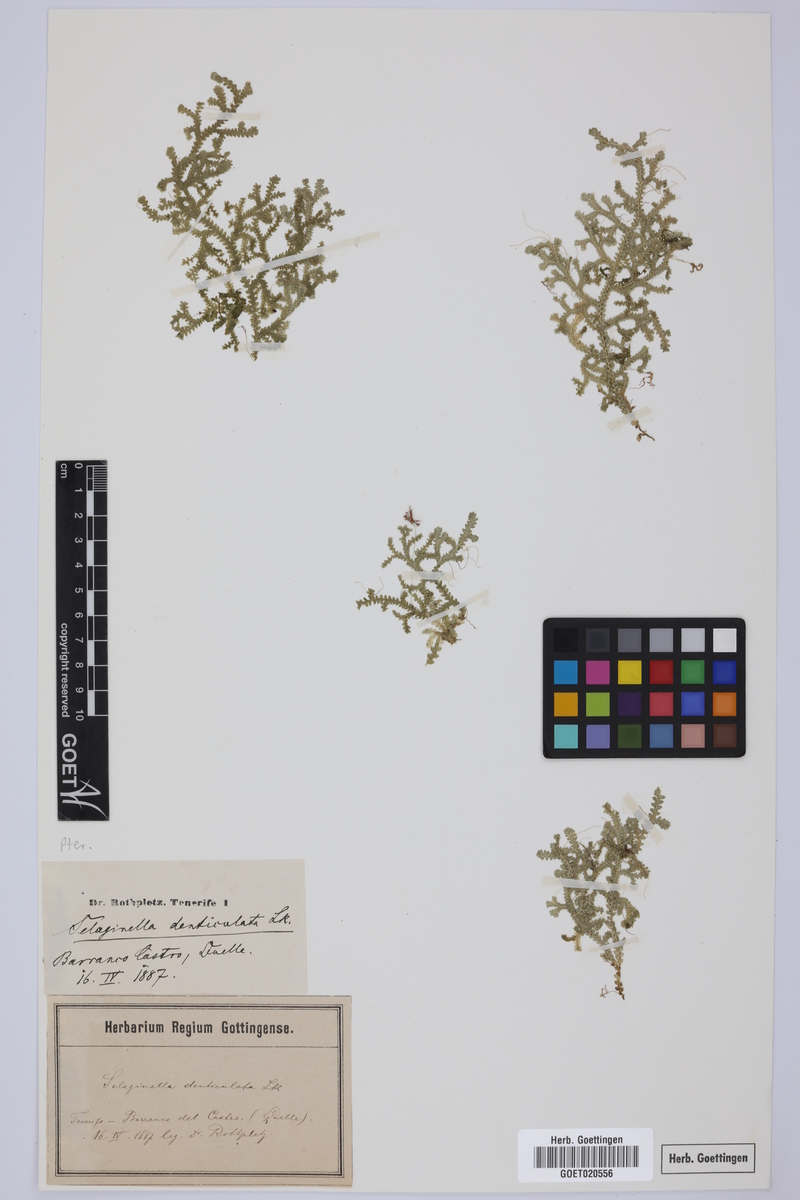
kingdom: Plantae
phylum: Tracheophyta
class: Lycopodiopsida
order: Selaginellales
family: Selaginellaceae
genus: Selaginella
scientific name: Selaginella denticulata
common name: Toothed-leaved clubmoss
